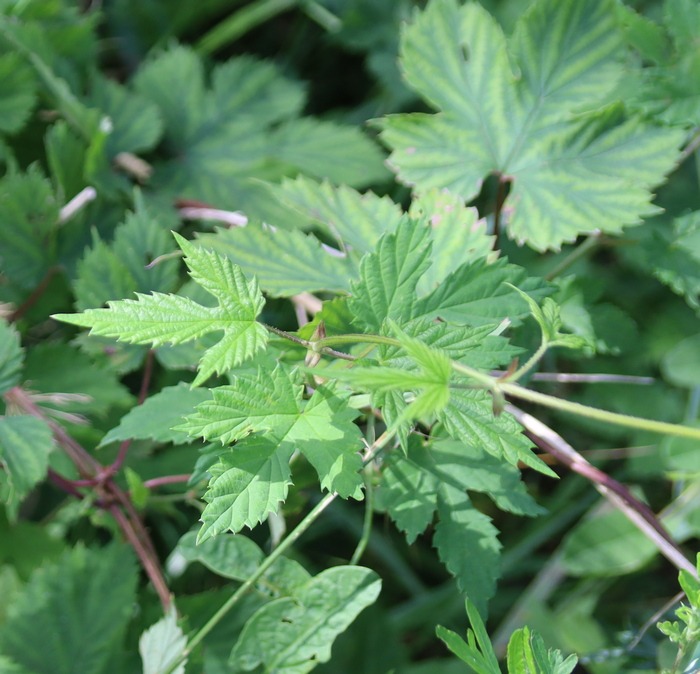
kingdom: Plantae
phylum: Tracheophyta
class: Magnoliopsida
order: Rosales
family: Cannabaceae
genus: Humulus
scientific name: Humulus lupulus
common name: Humle
